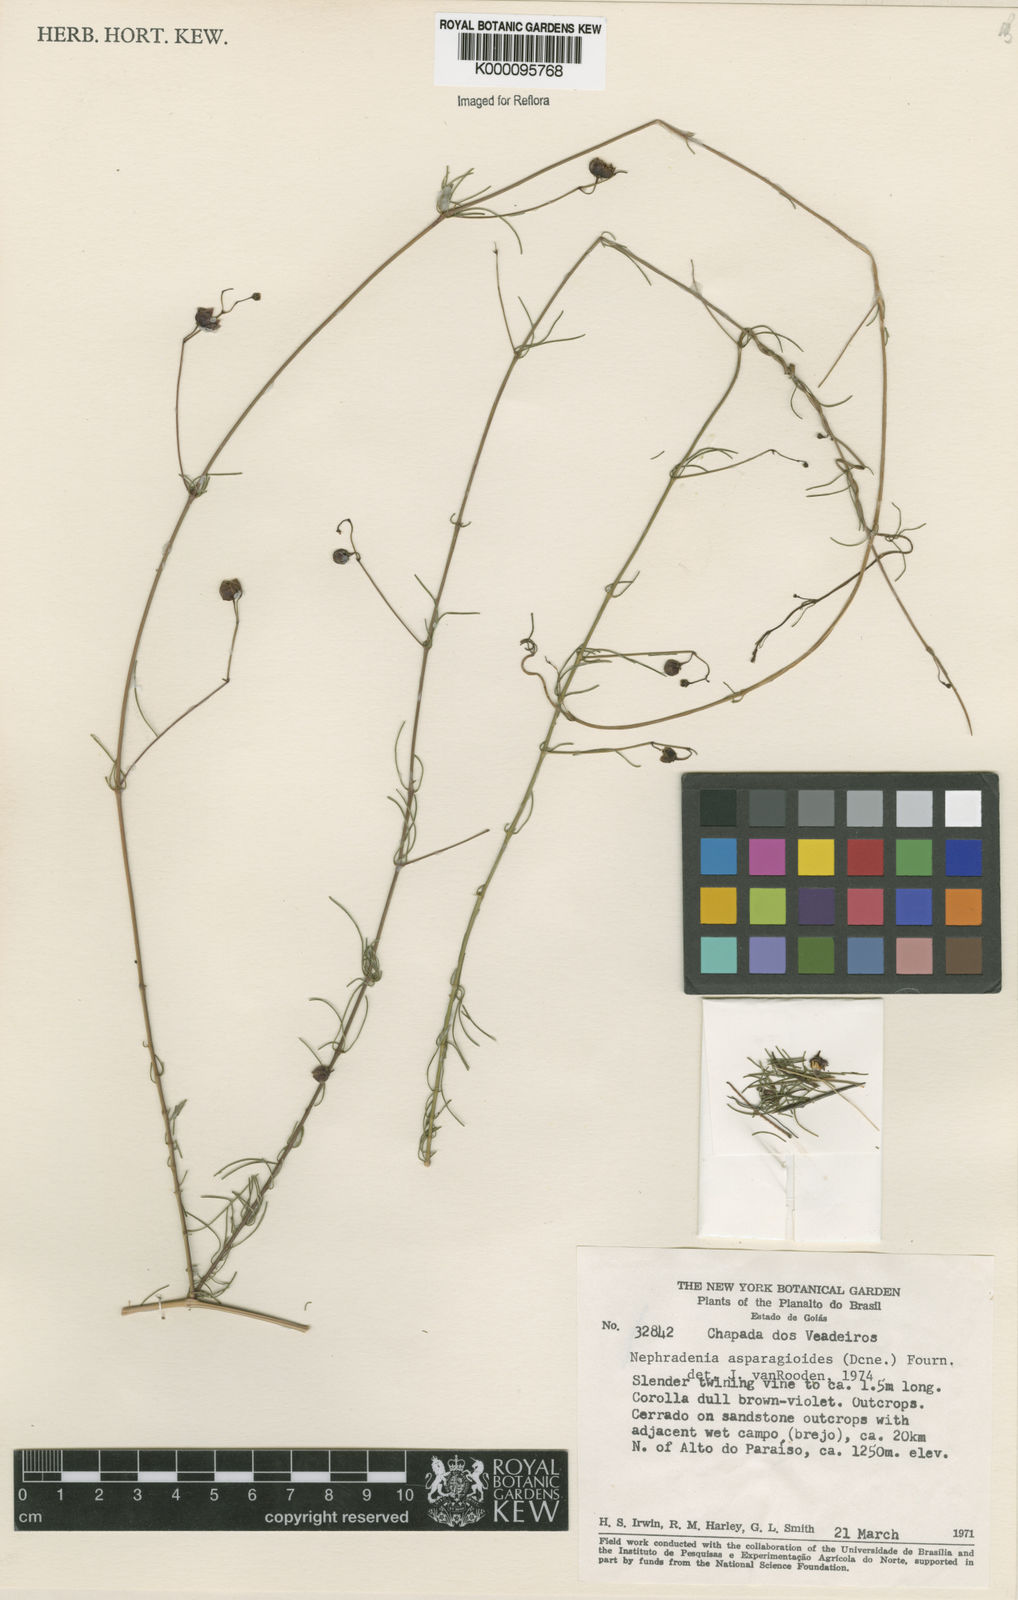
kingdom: Plantae
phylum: Tracheophyta
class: Magnoliopsida
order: Gentianales
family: Apocynaceae
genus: Nephradenia
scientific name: Nephradenia asparagoides
